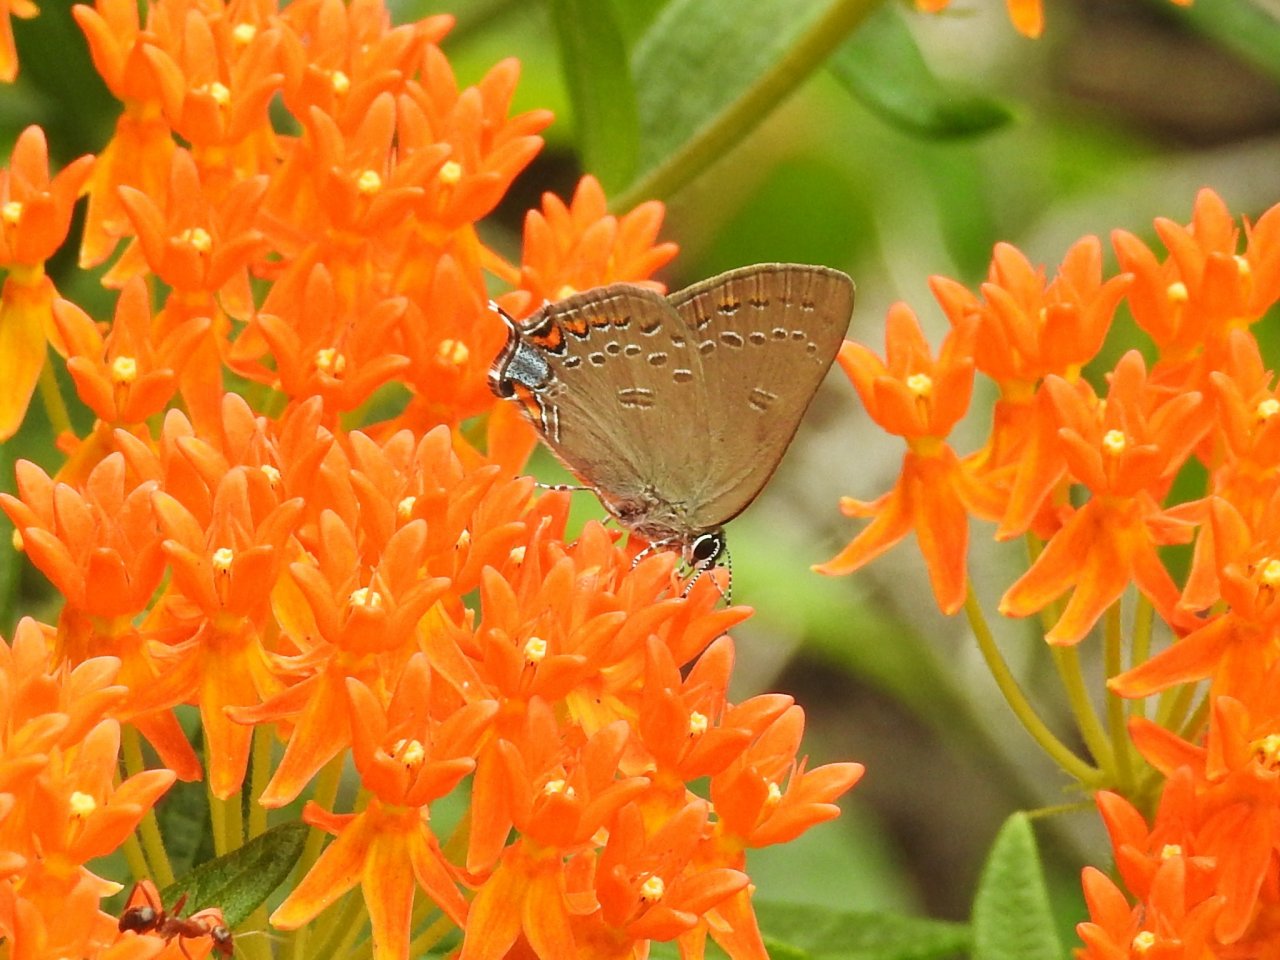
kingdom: Animalia
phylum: Arthropoda
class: Insecta
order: Lepidoptera
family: Lycaenidae
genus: Satyrium
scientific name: Satyrium edwardsii
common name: Edwards' Hairstreak
